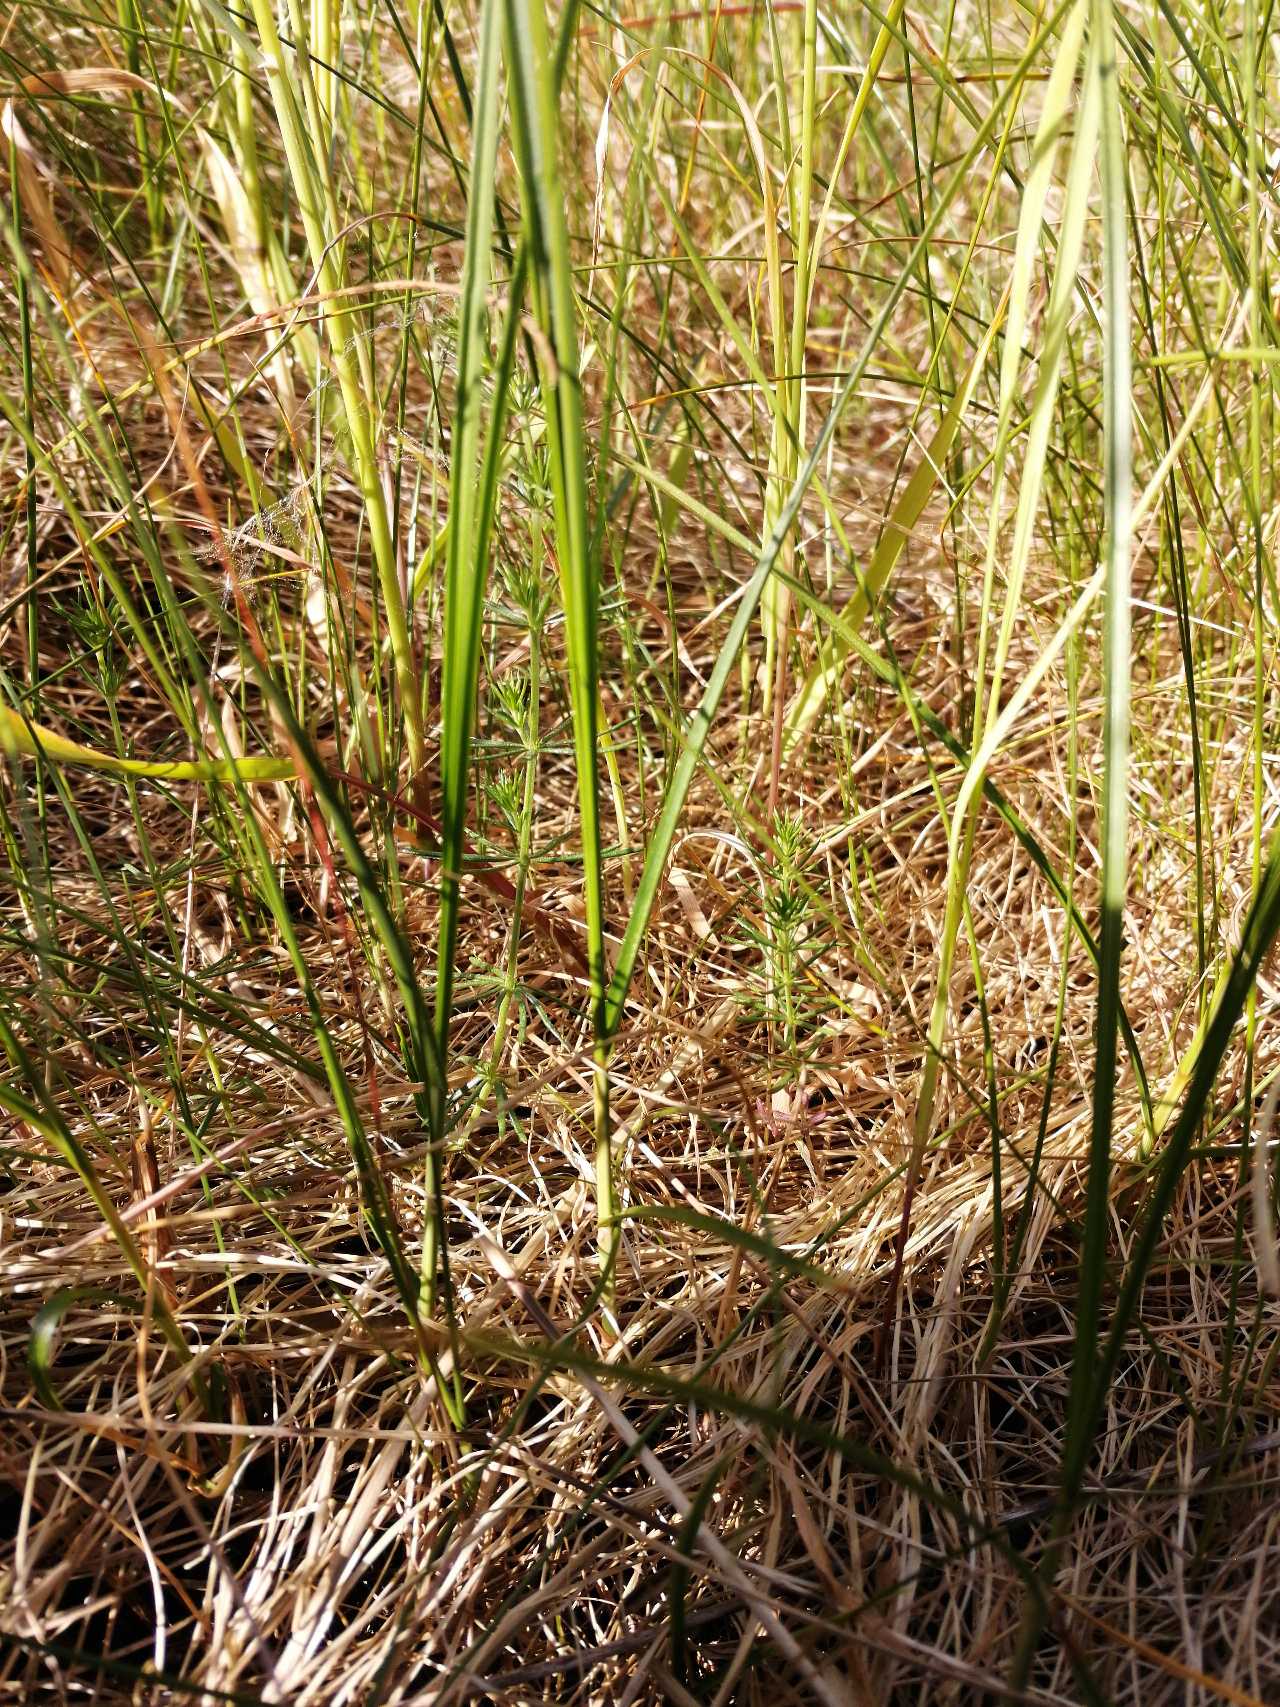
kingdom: Plantae
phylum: Tracheophyta
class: Liliopsida
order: Poales
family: Cyperaceae
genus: Carex
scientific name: Carex arenaria
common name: Sand-star
